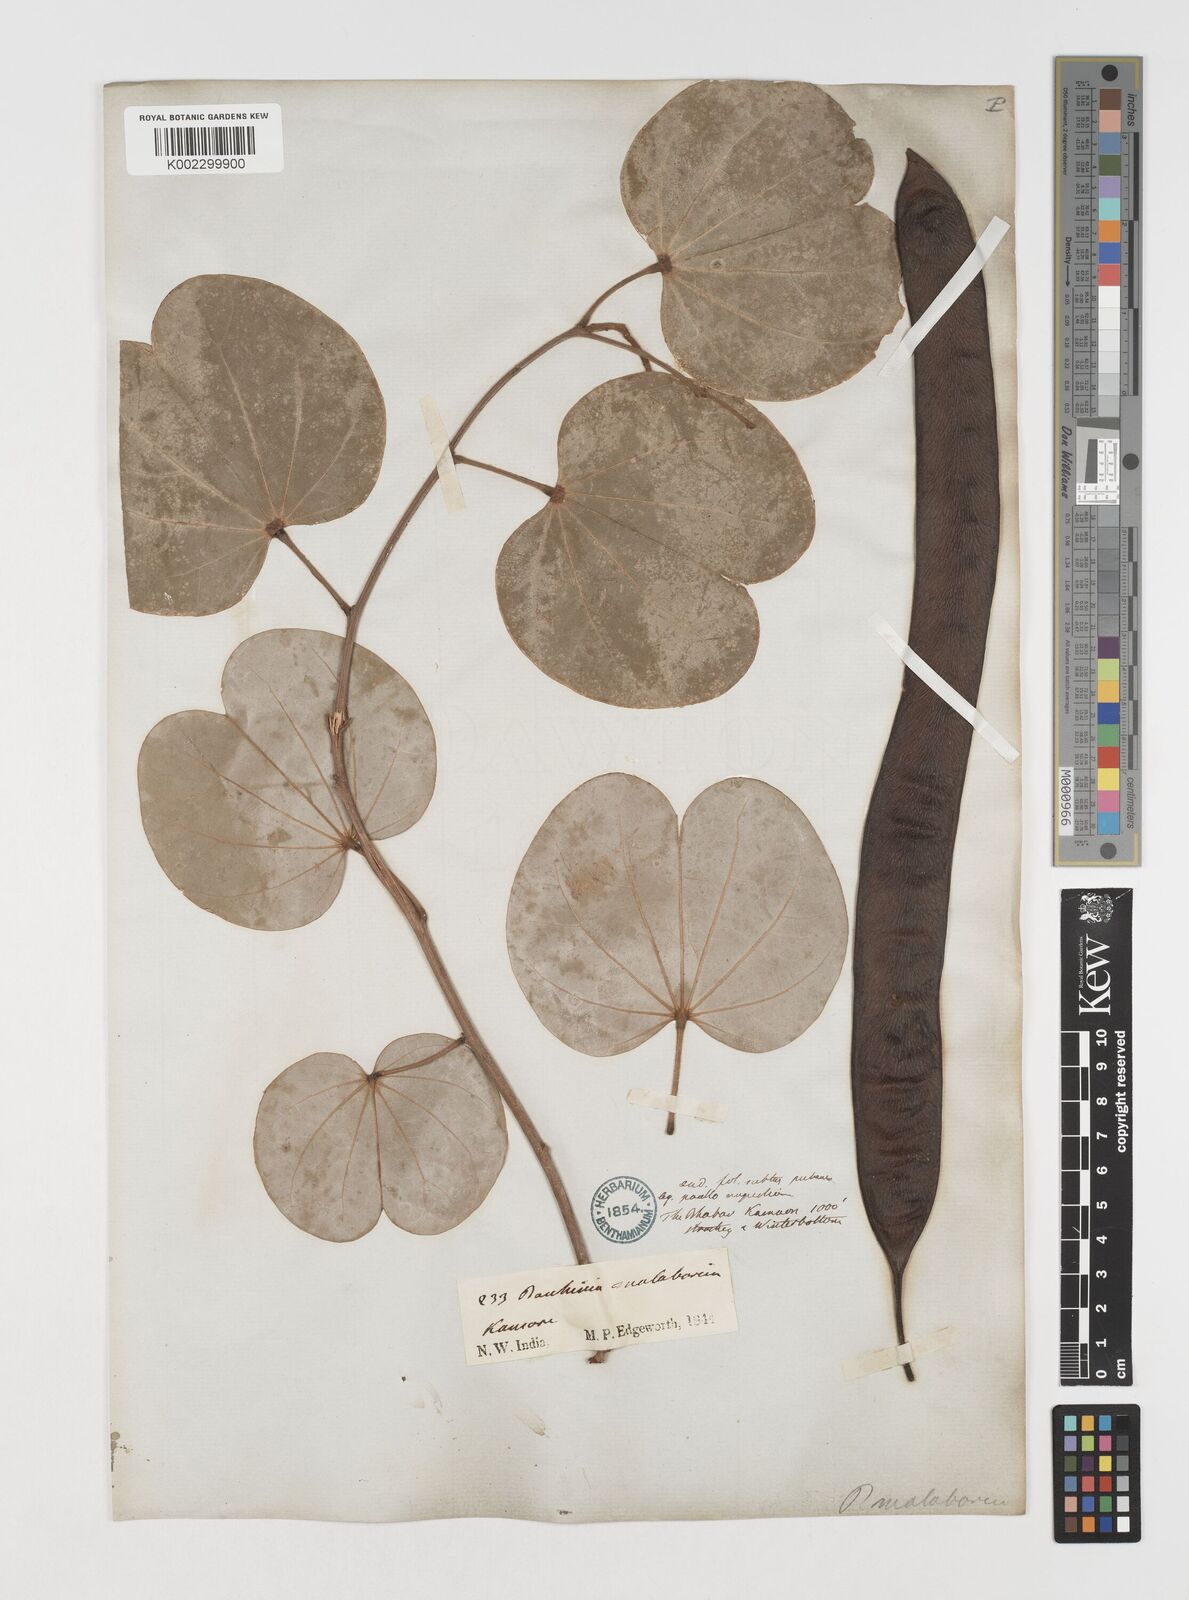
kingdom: Plantae
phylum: Tracheophyta
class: Magnoliopsida
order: Fabales
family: Fabaceae
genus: Piliostigma
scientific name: Piliostigma malabaricum
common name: Malabar bauhinia
